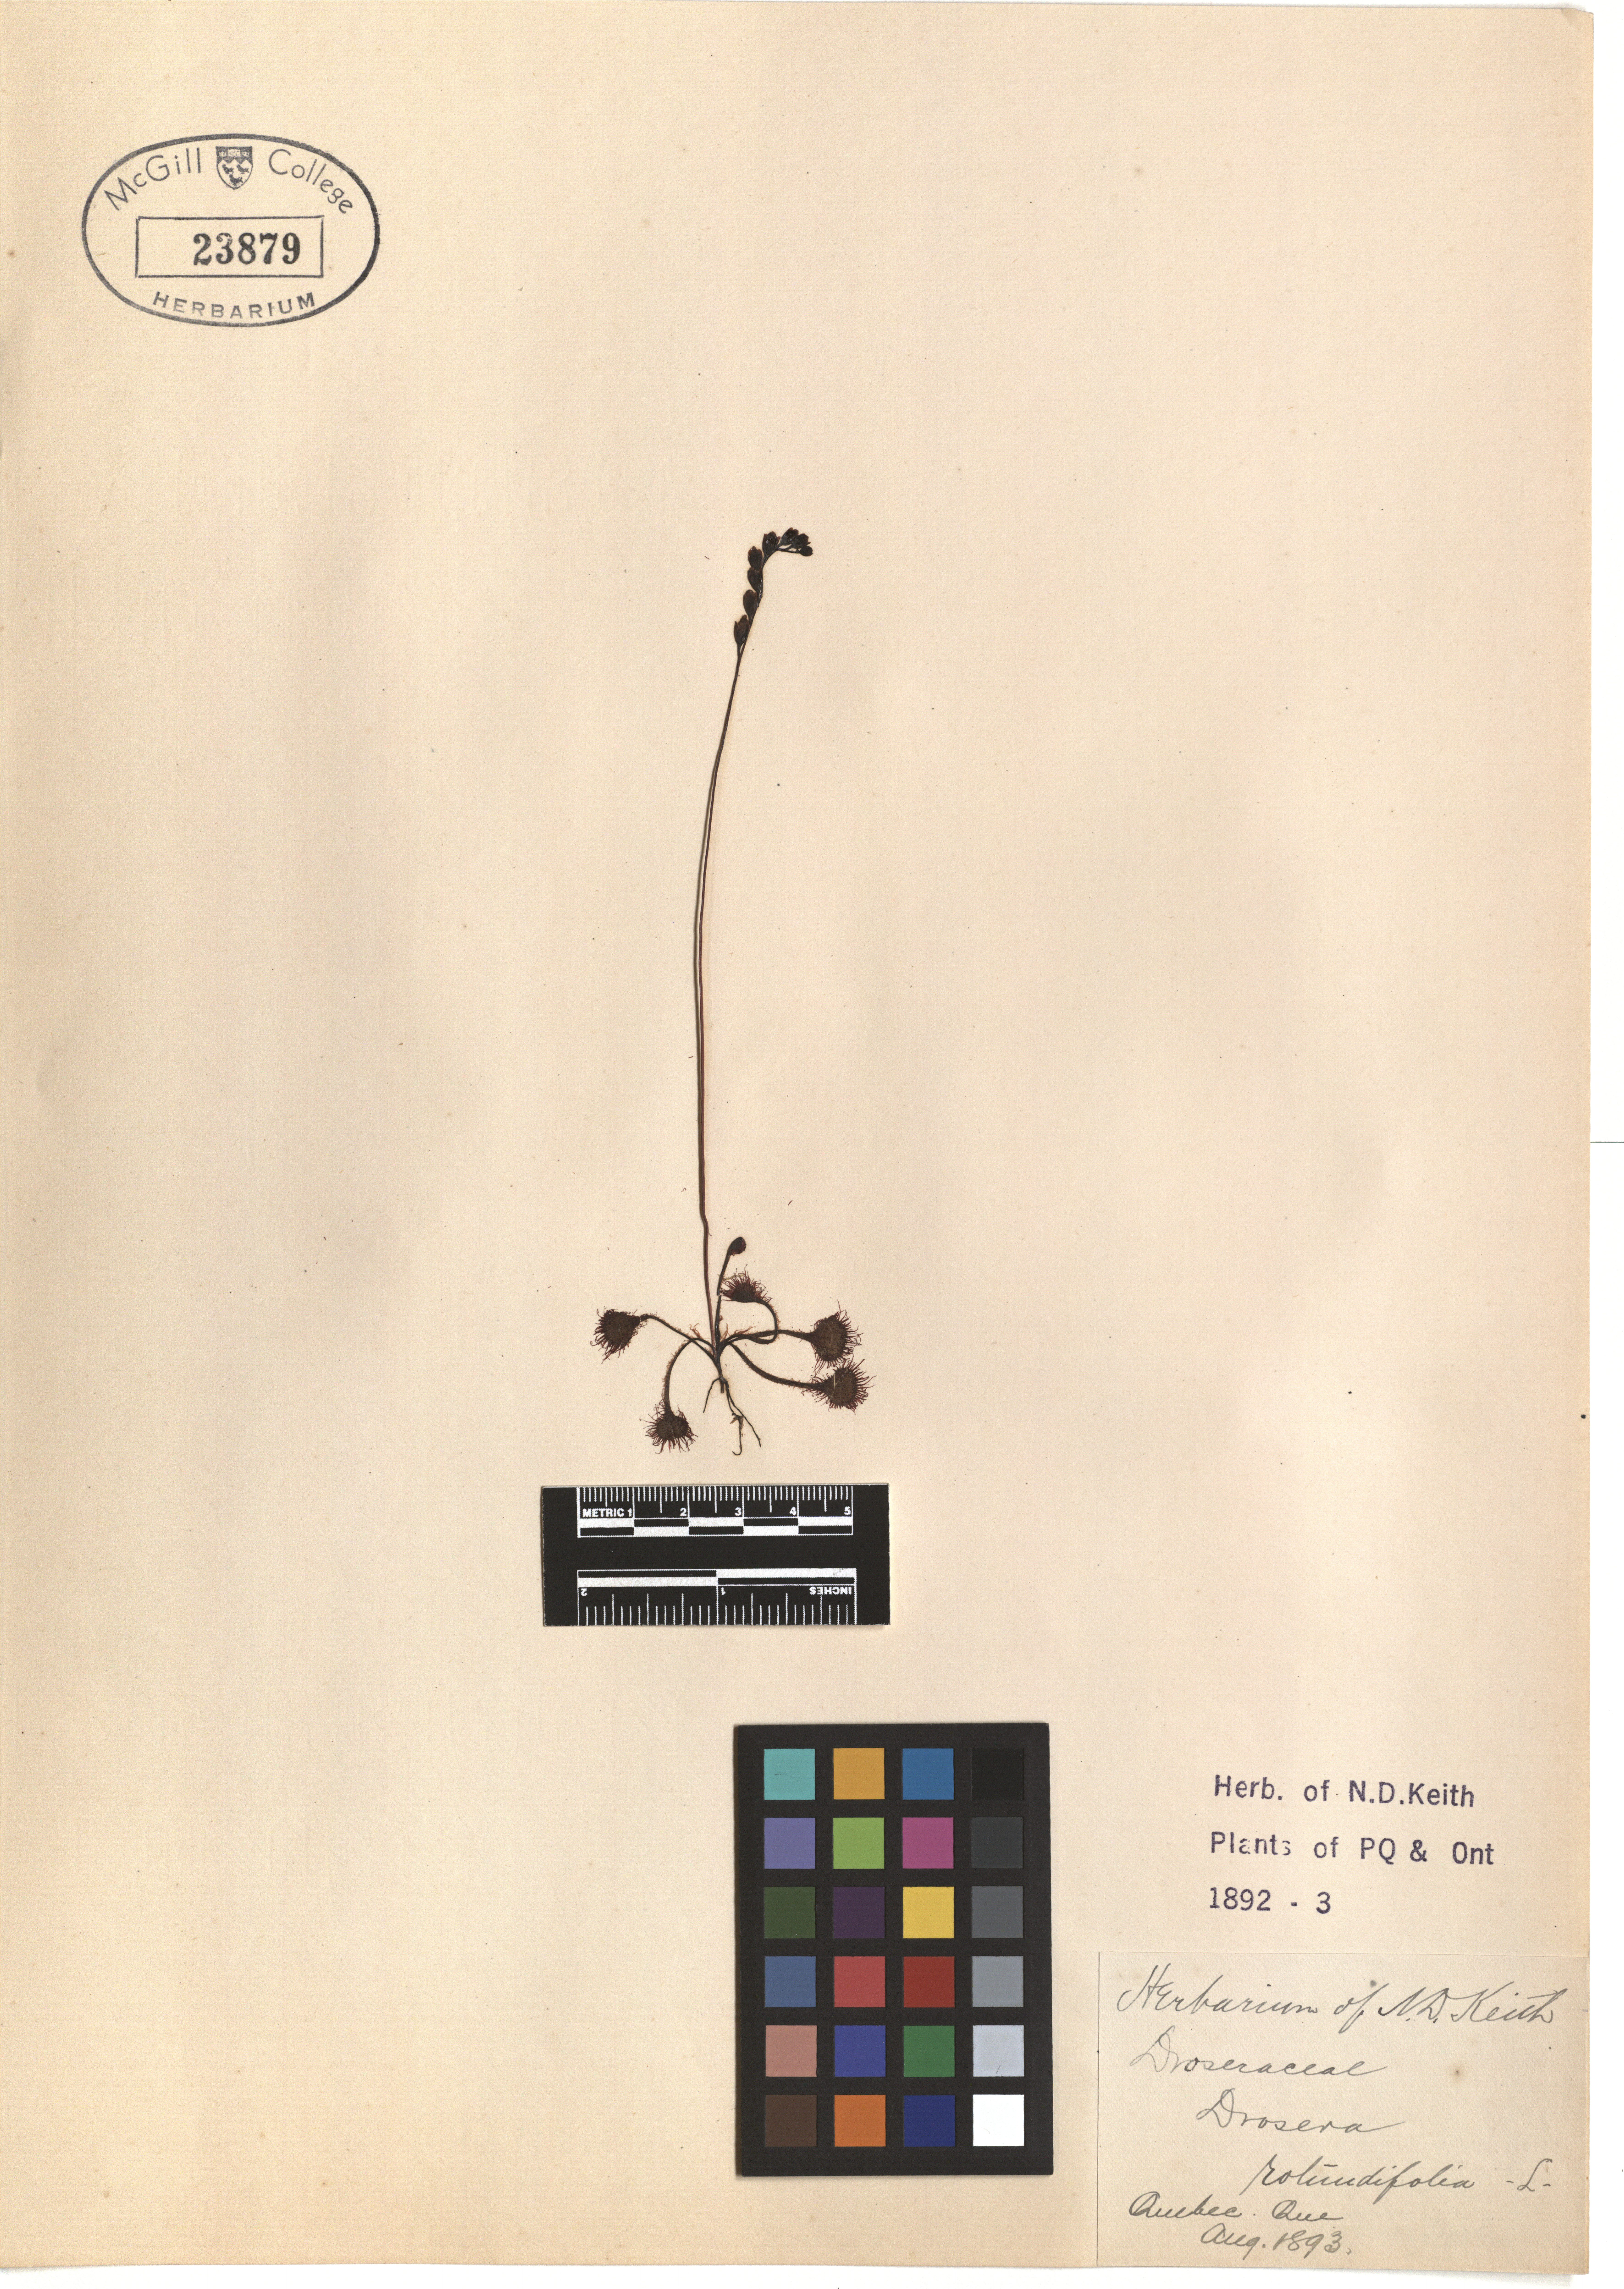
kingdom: Plantae
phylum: Tracheophyta
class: Magnoliopsida
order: Caryophyllales
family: Droseraceae
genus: Drosera
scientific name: Drosera rotundifolia
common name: Round-leaved sundew
